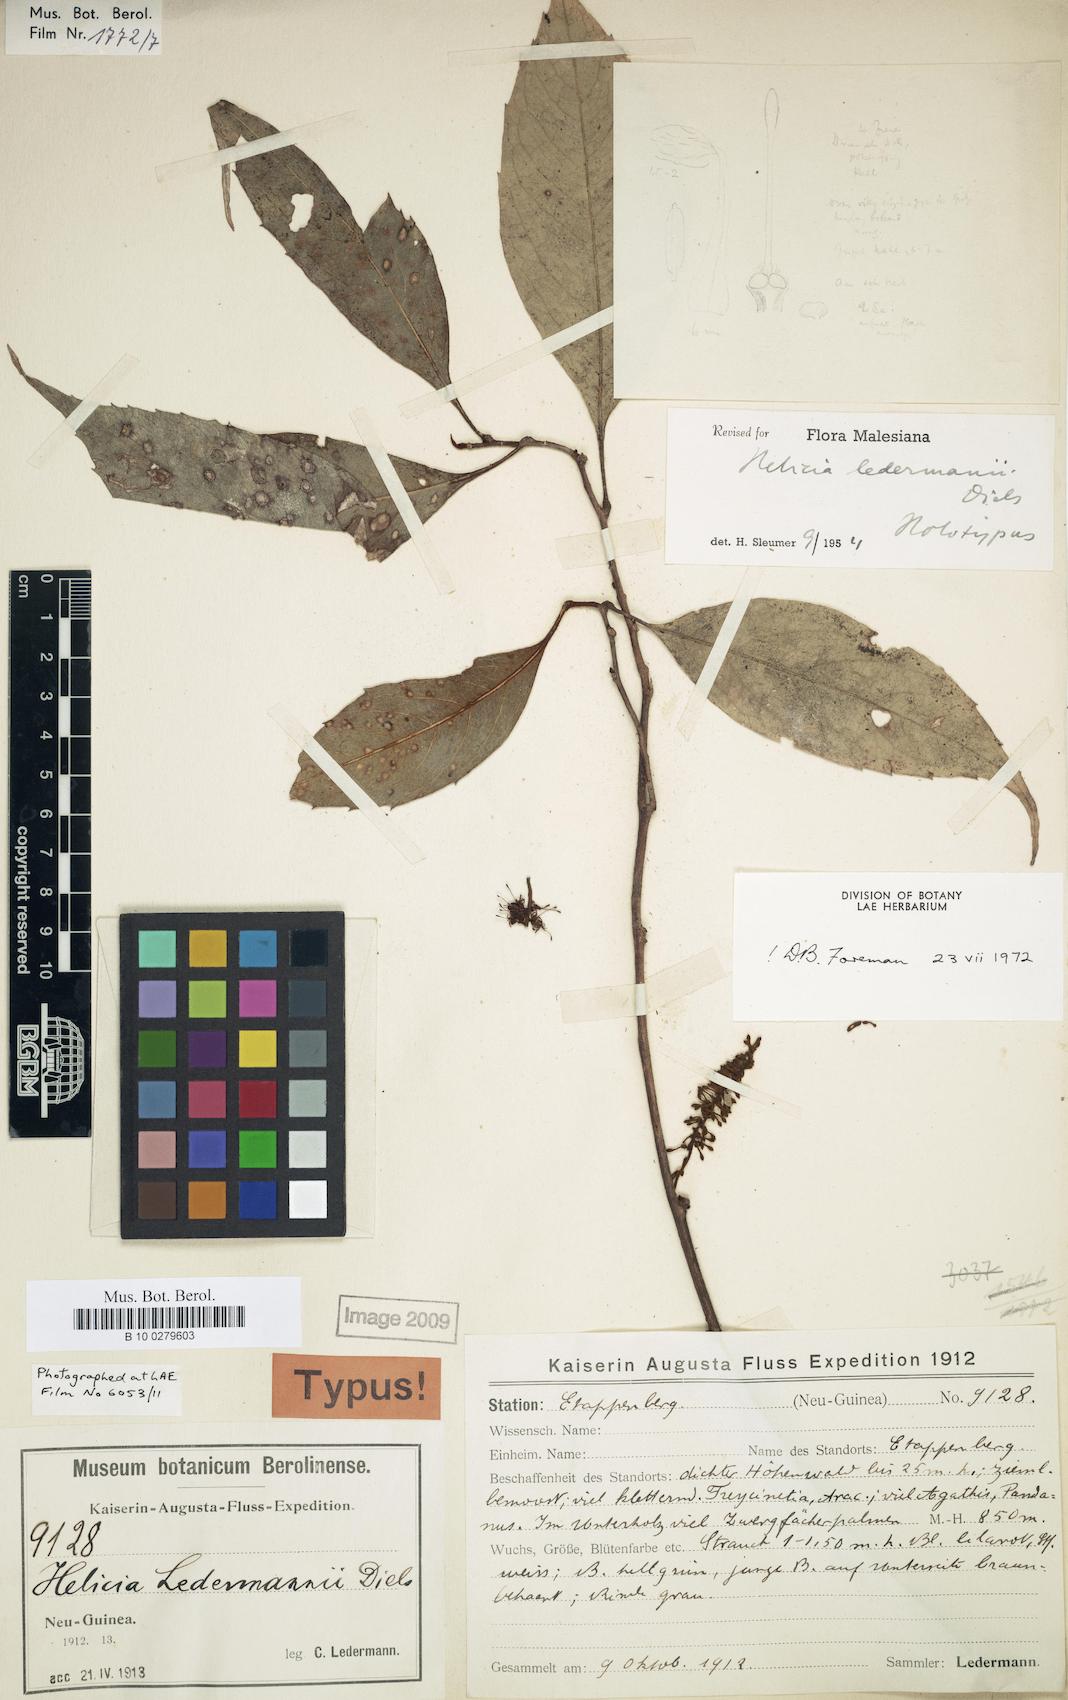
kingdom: Plantae
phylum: Tracheophyta
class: Magnoliopsida
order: Proteales
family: Proteaceae
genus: Helicia
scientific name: Helicia ledermannii
